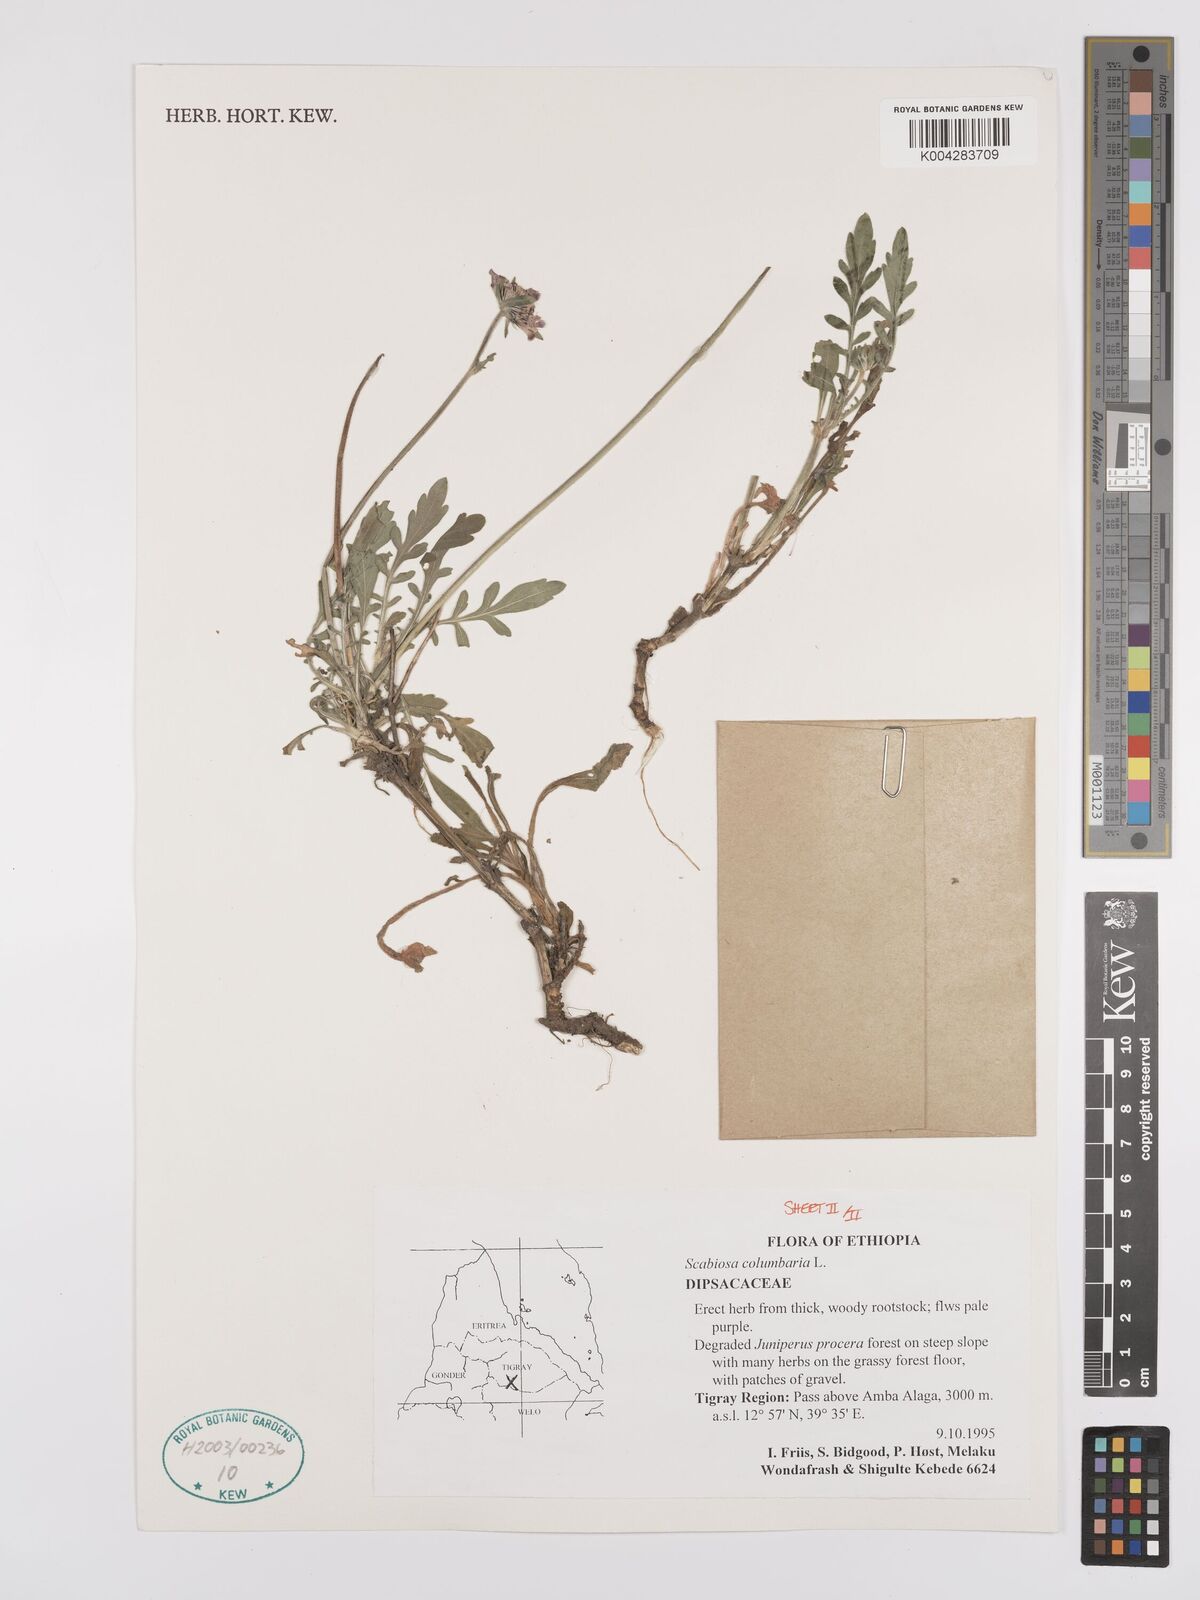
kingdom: Plantae
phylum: Tracheophyta
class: Magnoliopsida
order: Dipsacales
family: Caprifoliaceae
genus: Scabiosa
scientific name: Scabiosa columbaria
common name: Small scabious
